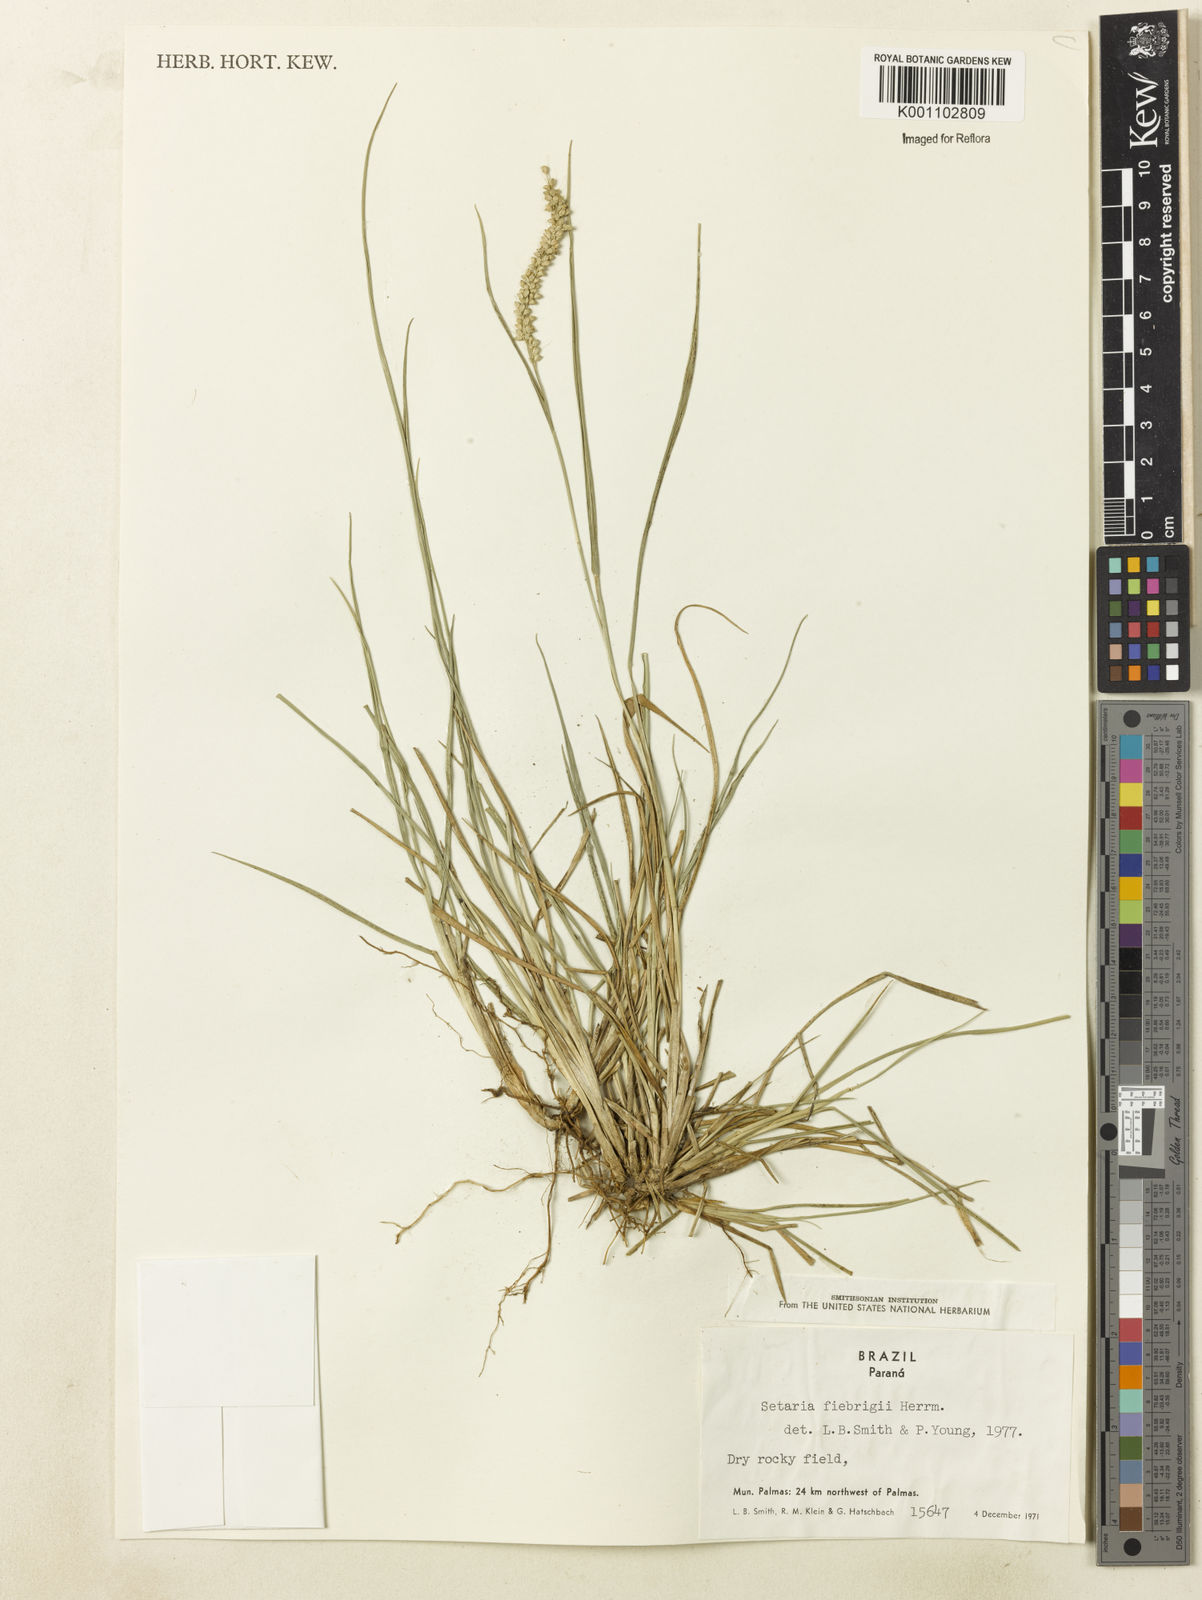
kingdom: Plantae
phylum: Tracheophyta
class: Liliopsida
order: Poales
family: Poaceae
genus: Setaria
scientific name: Setaria setosa
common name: West indies bristle grass
